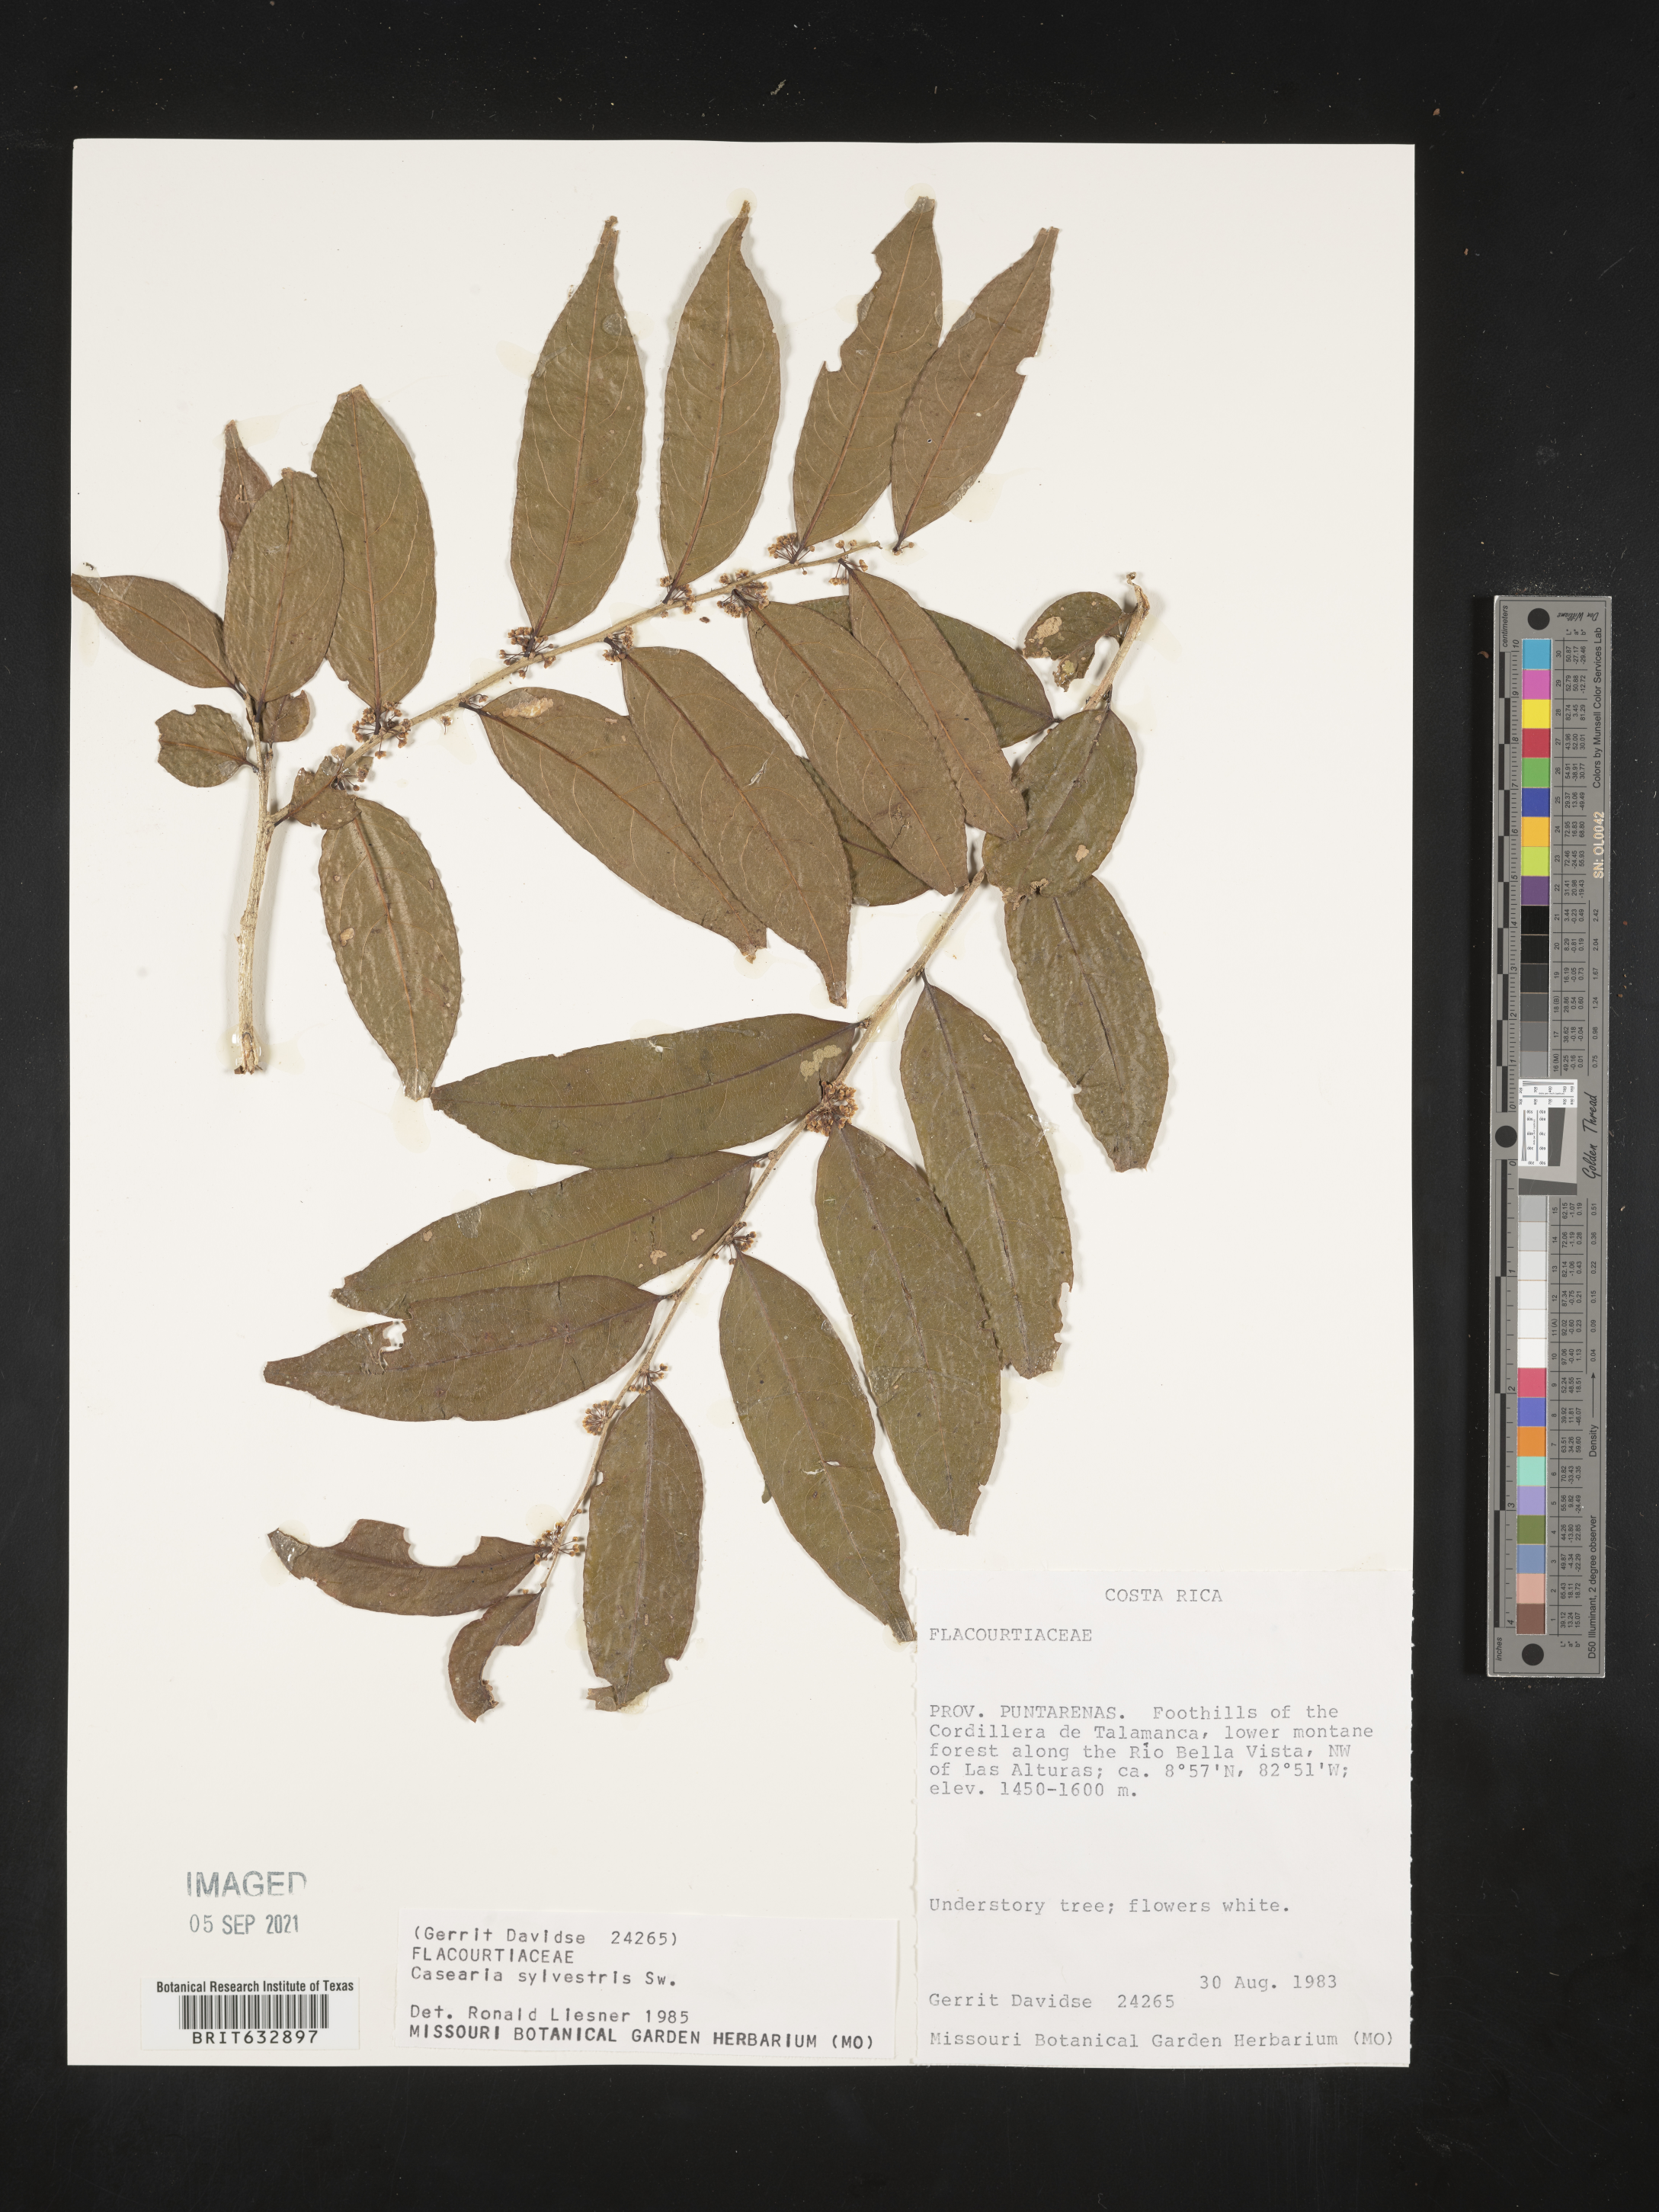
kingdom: Plantae
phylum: Tracheophyta
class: Magnoliopsida
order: Malpighiales
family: Salicaceae
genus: Casearia
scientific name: Casearia
